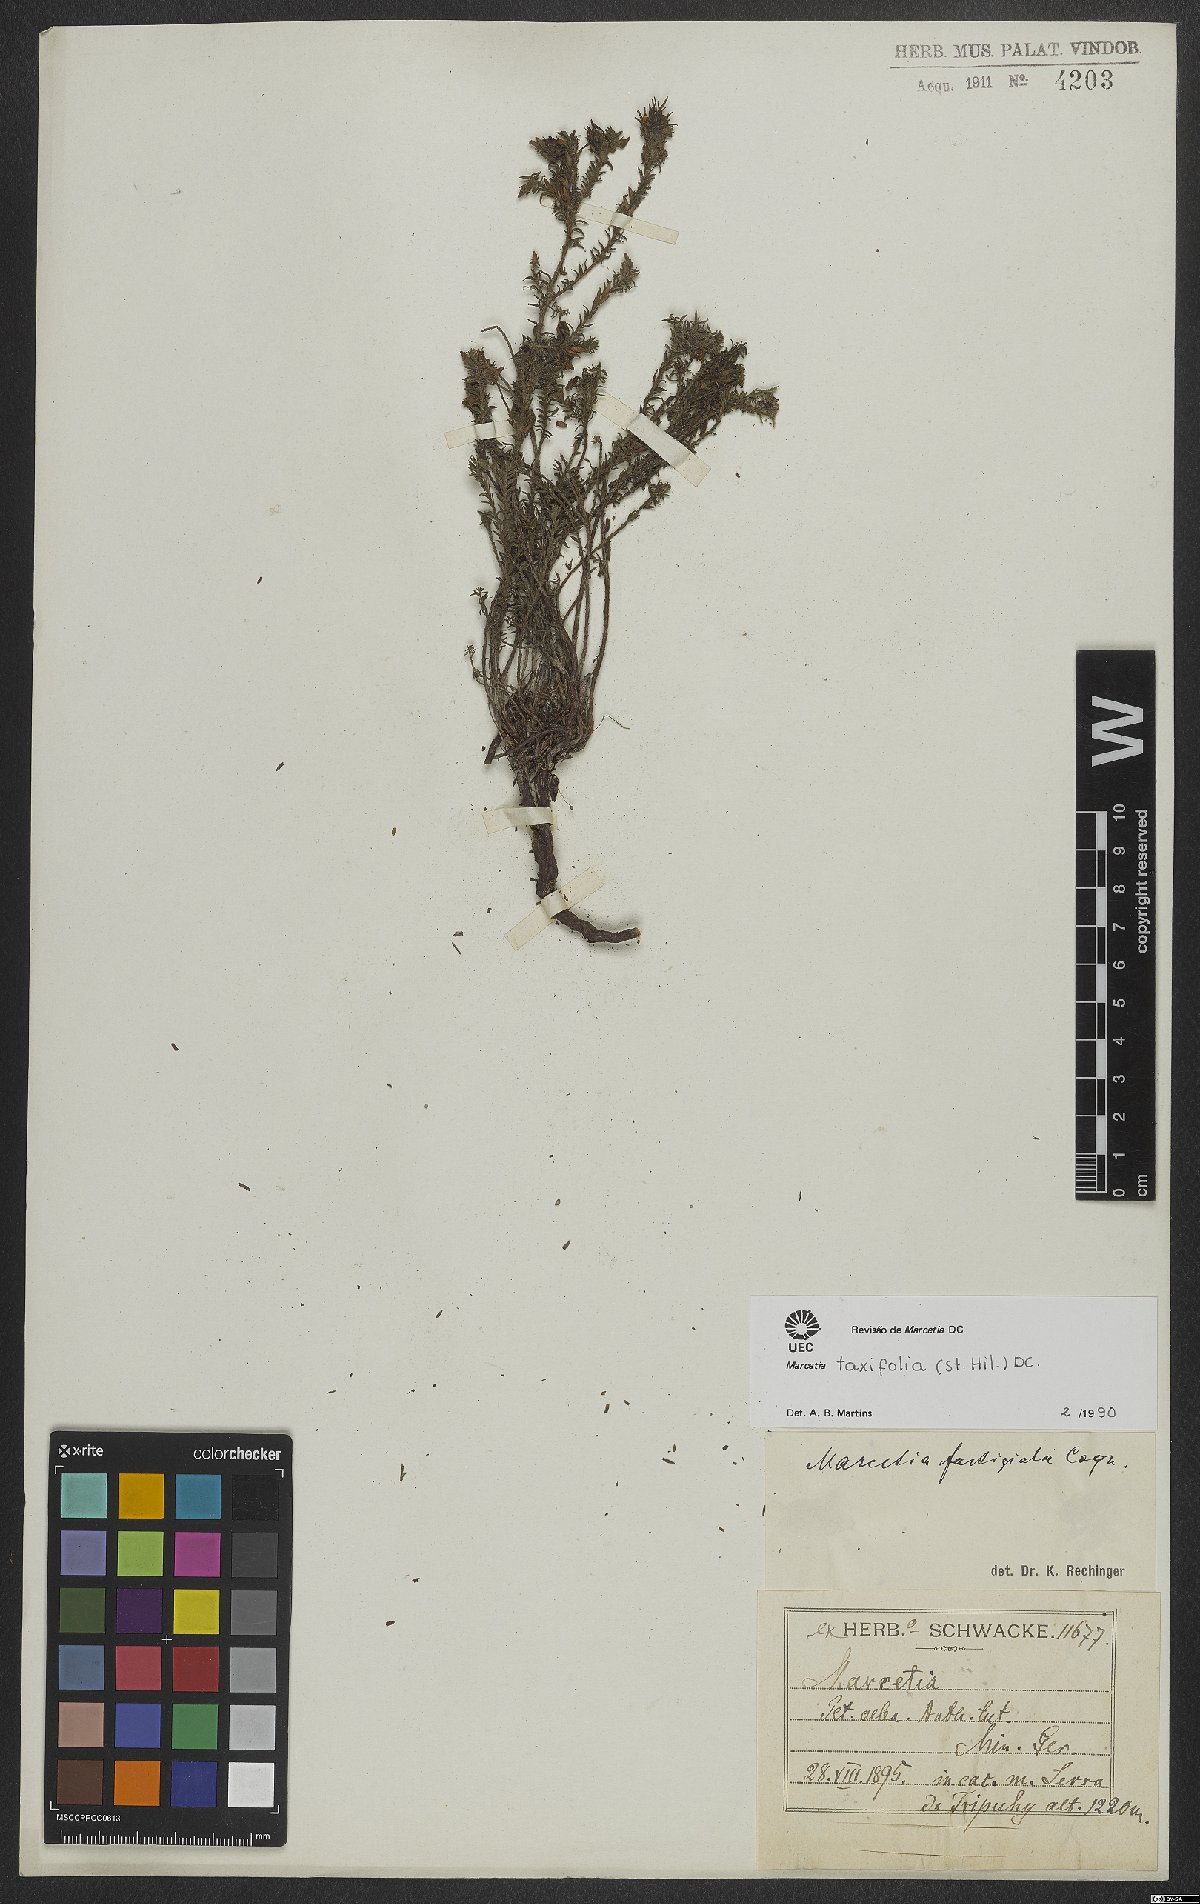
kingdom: Plantae
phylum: Tracheophyta
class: Magnoliopsida
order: Myrtales
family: Melastomataceae
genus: Marcetia
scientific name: Marcetia taxifolia
